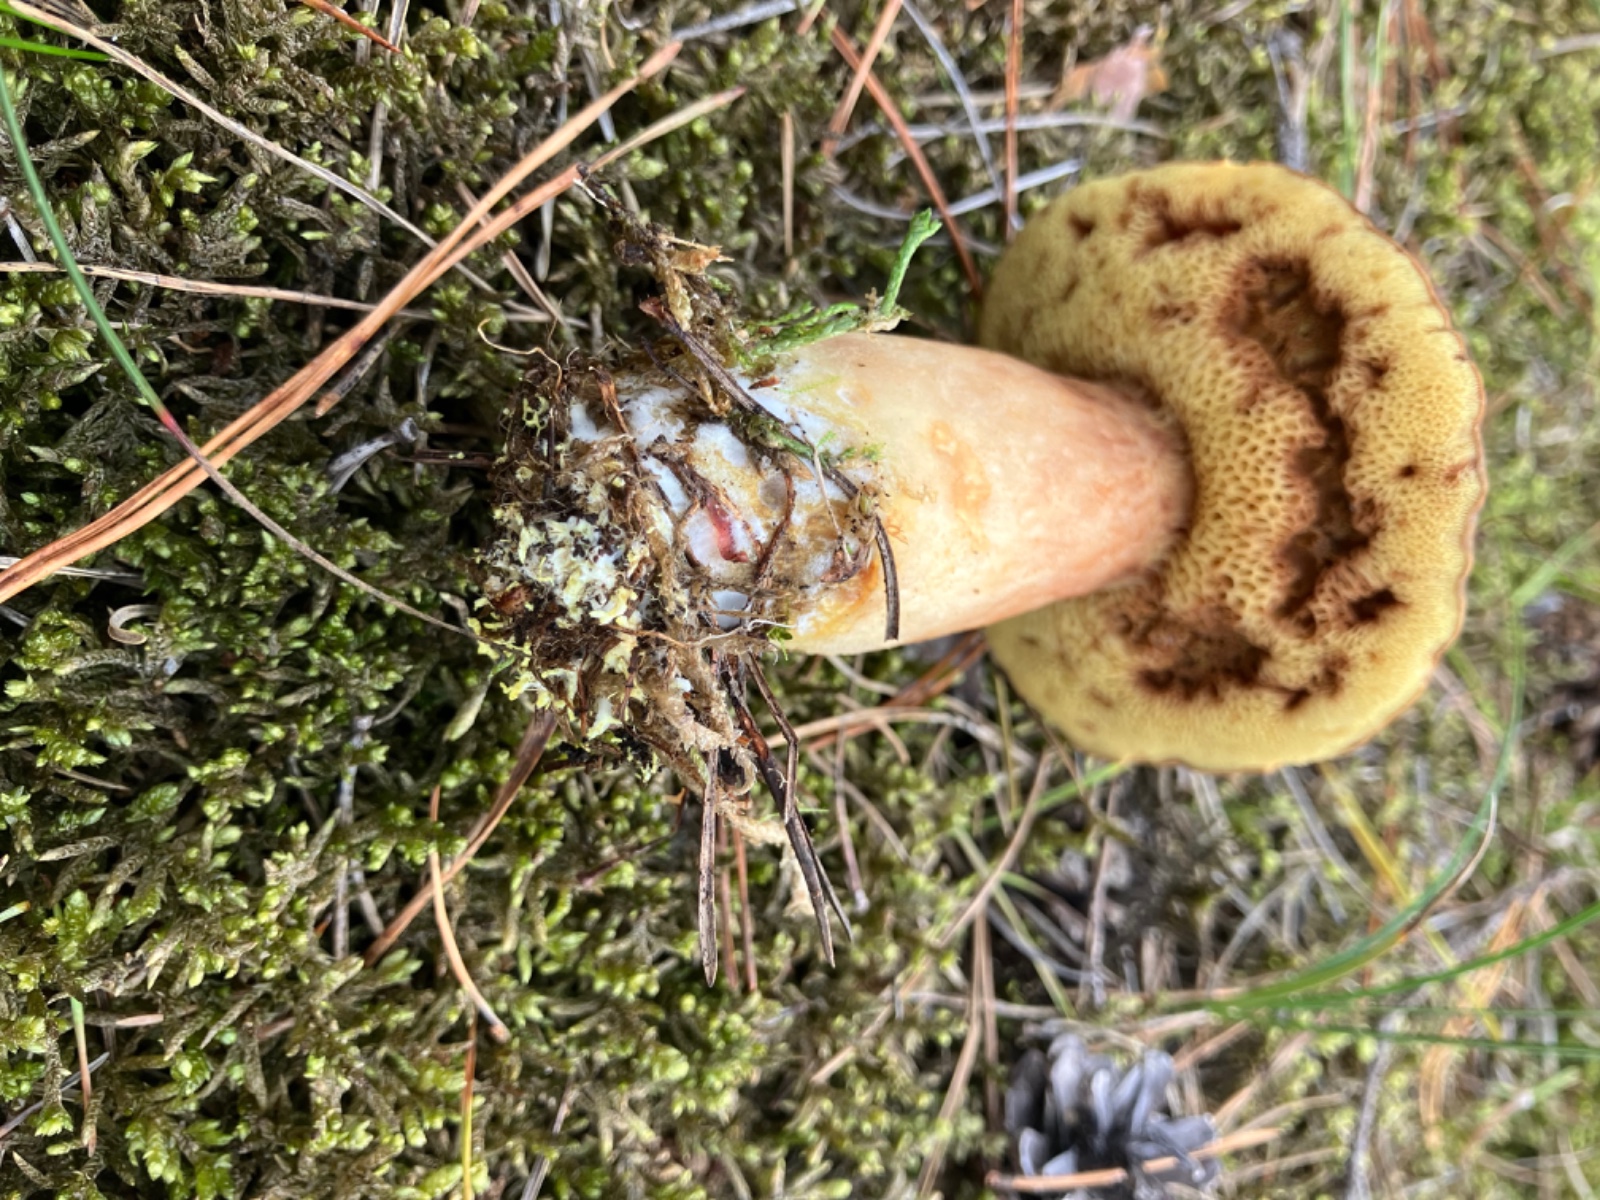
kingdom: Fungi
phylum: Basidiomycota
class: Agaricomycetes
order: Boletales
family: Boletaceae
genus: Xerocomus
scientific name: Xerocomus ferrugineus
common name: vaskeskinds-rørhat
